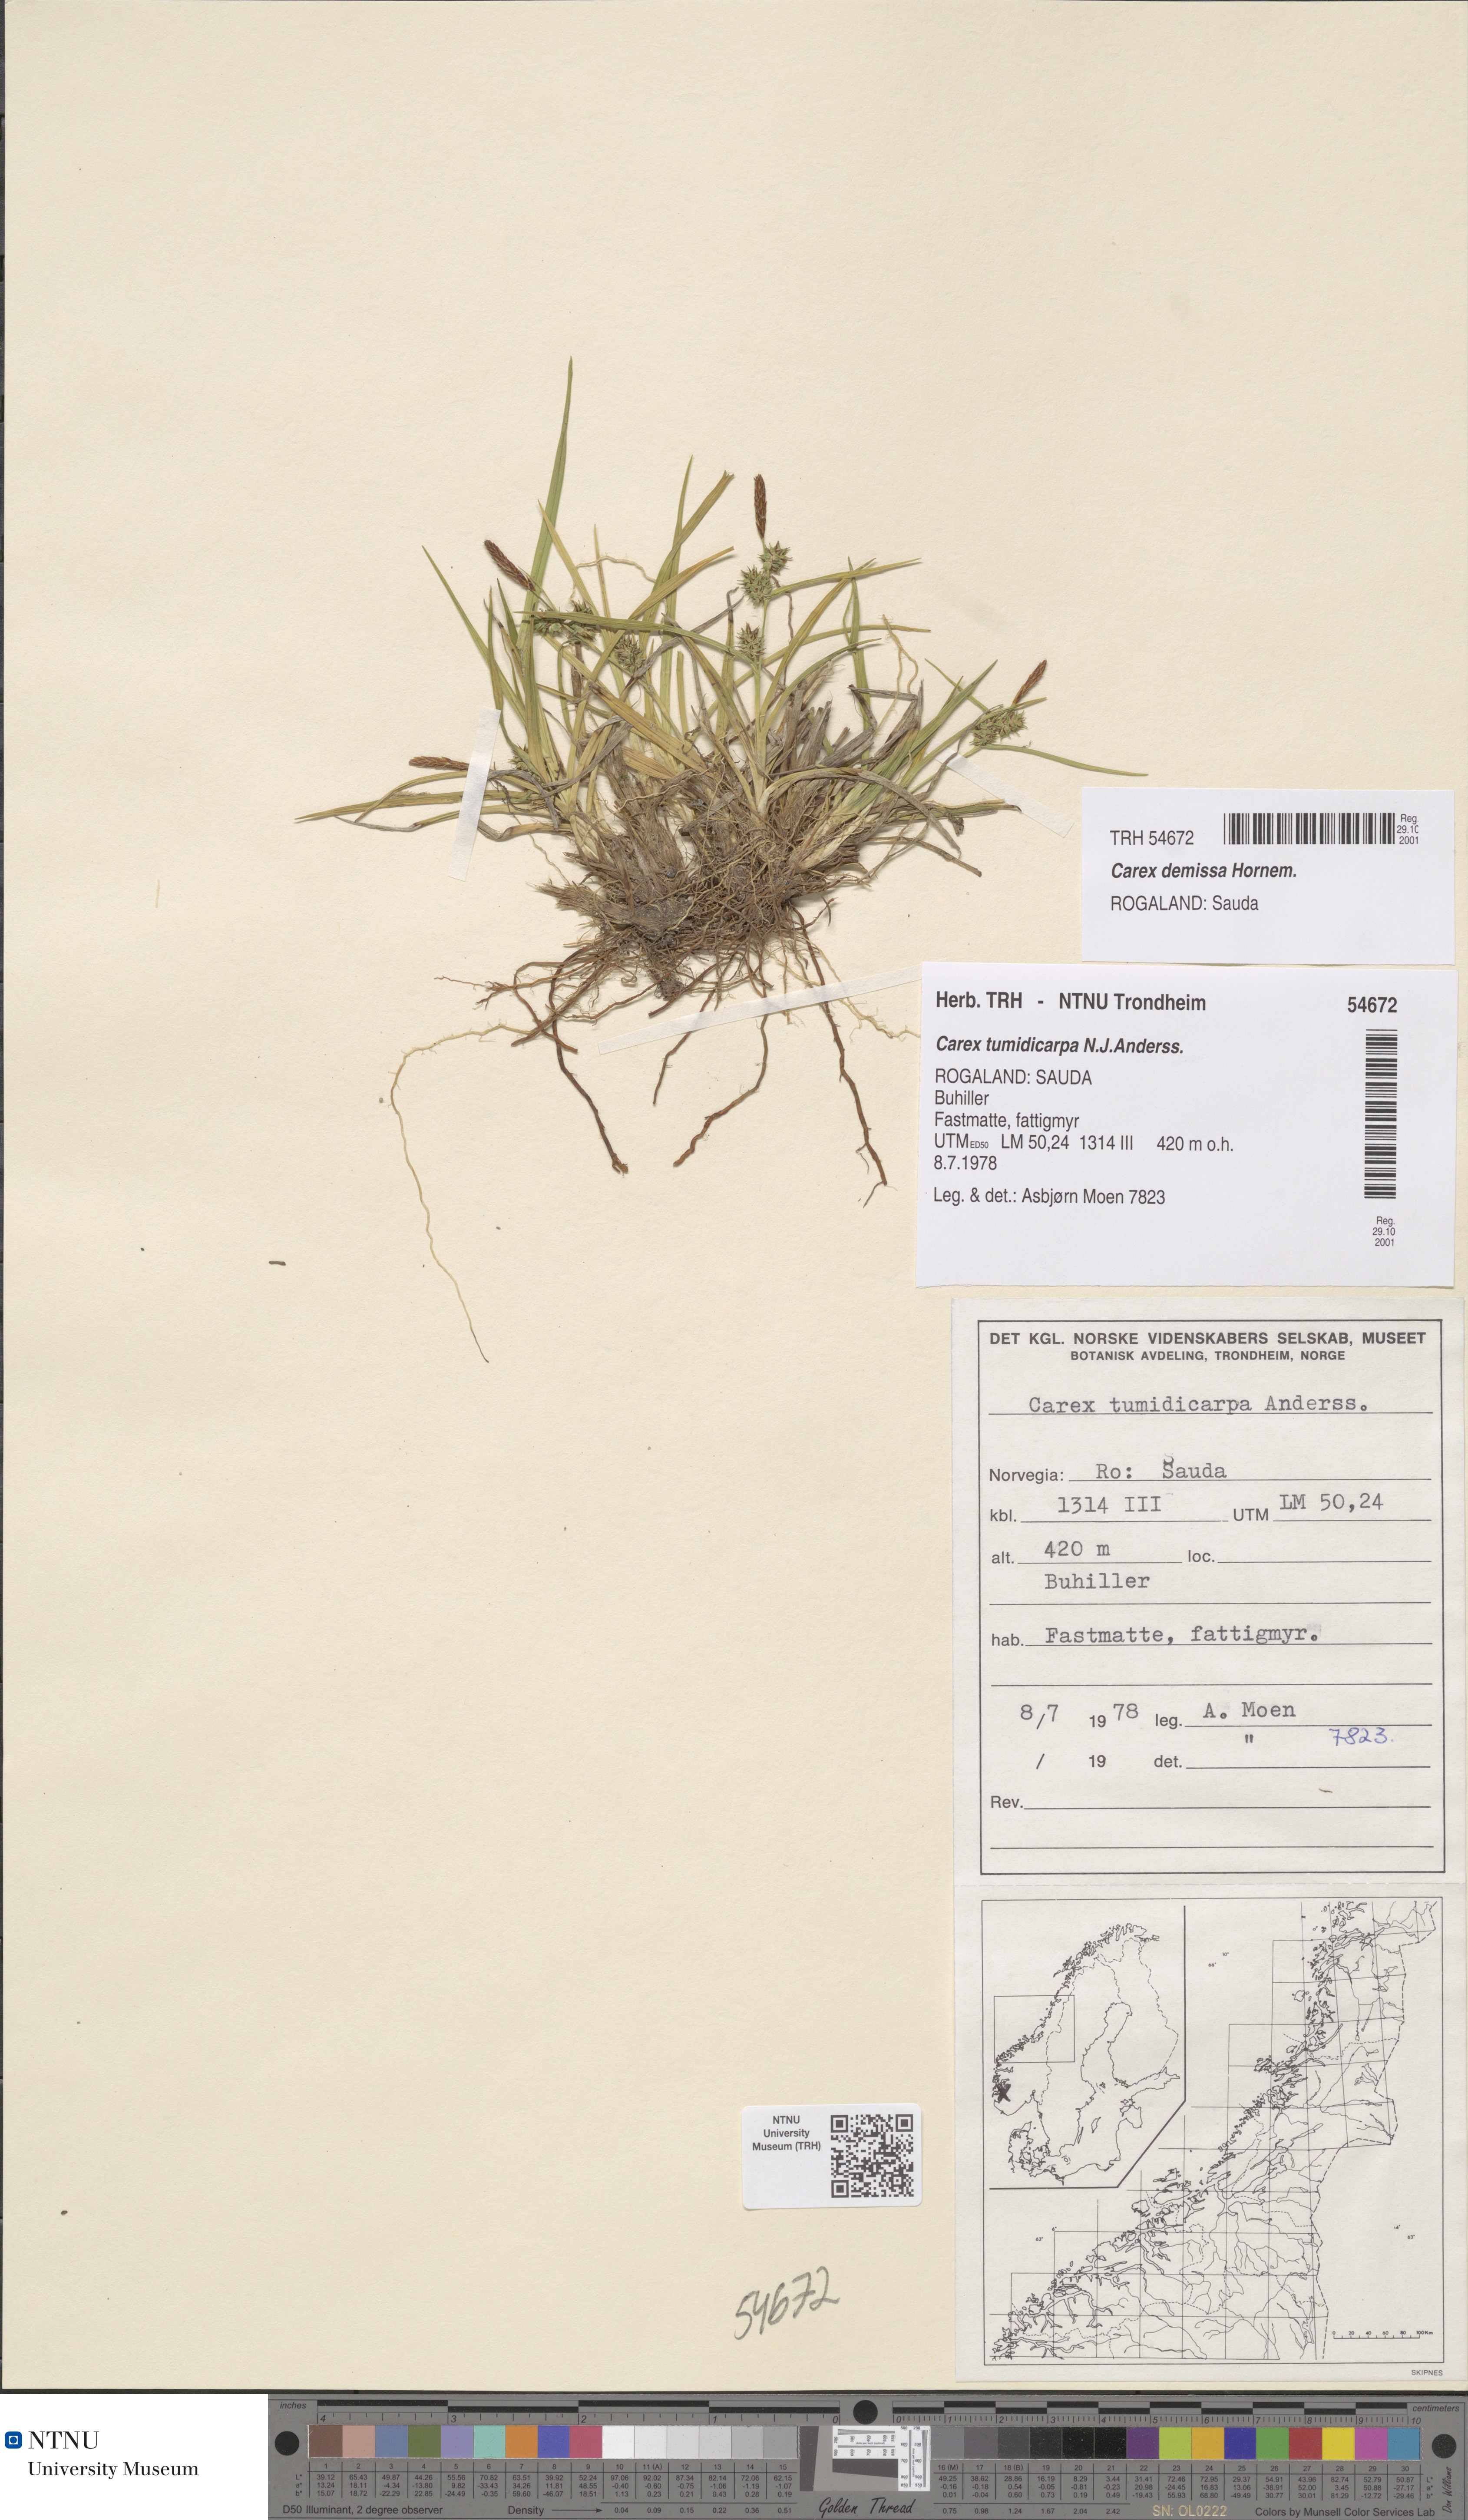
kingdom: Plantae
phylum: Tracheophyta
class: Liliopsida
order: Poales
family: Cyperaceae
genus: Carex
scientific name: Carex demissa
